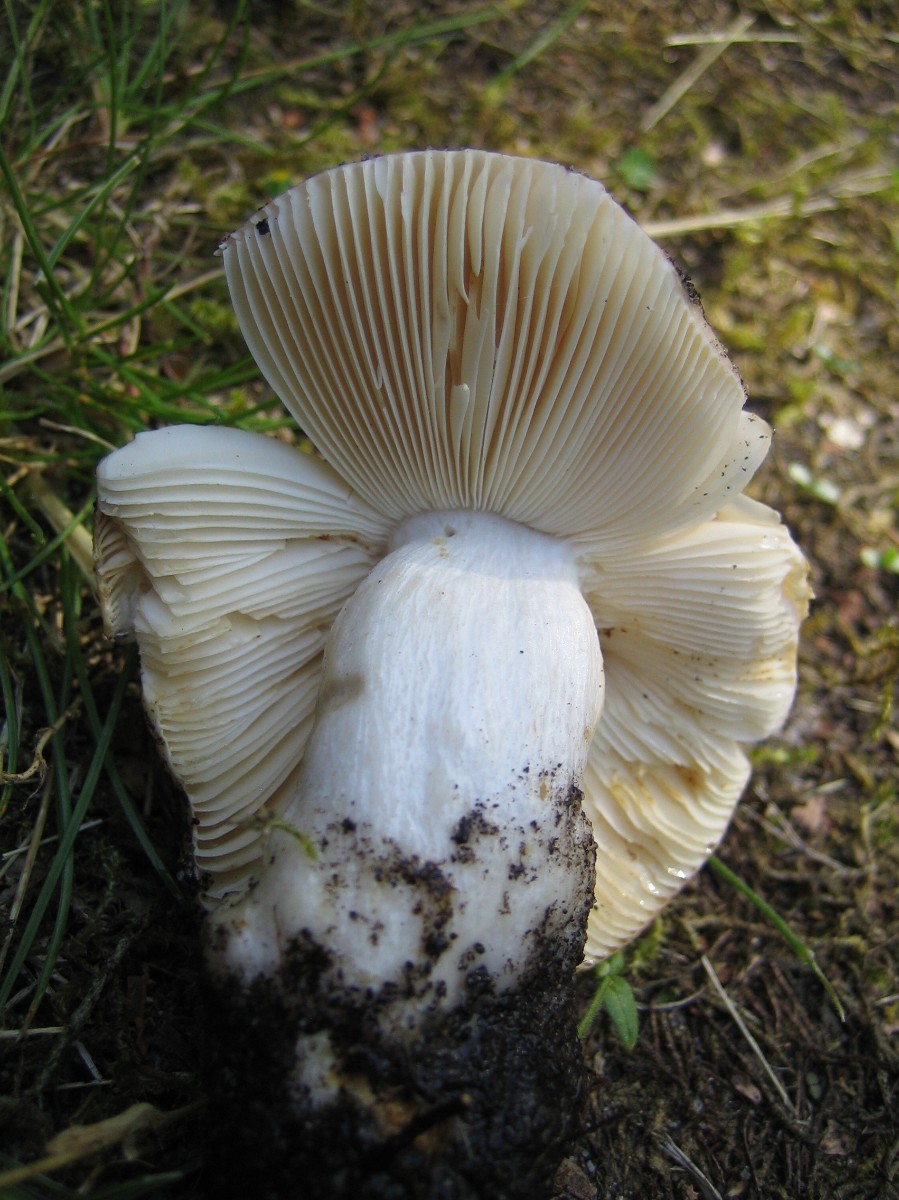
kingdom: Fungi
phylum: Basidiomycota
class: Agaricomycetes
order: Russulales
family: Russulaceae
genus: Russula
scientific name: Russula
